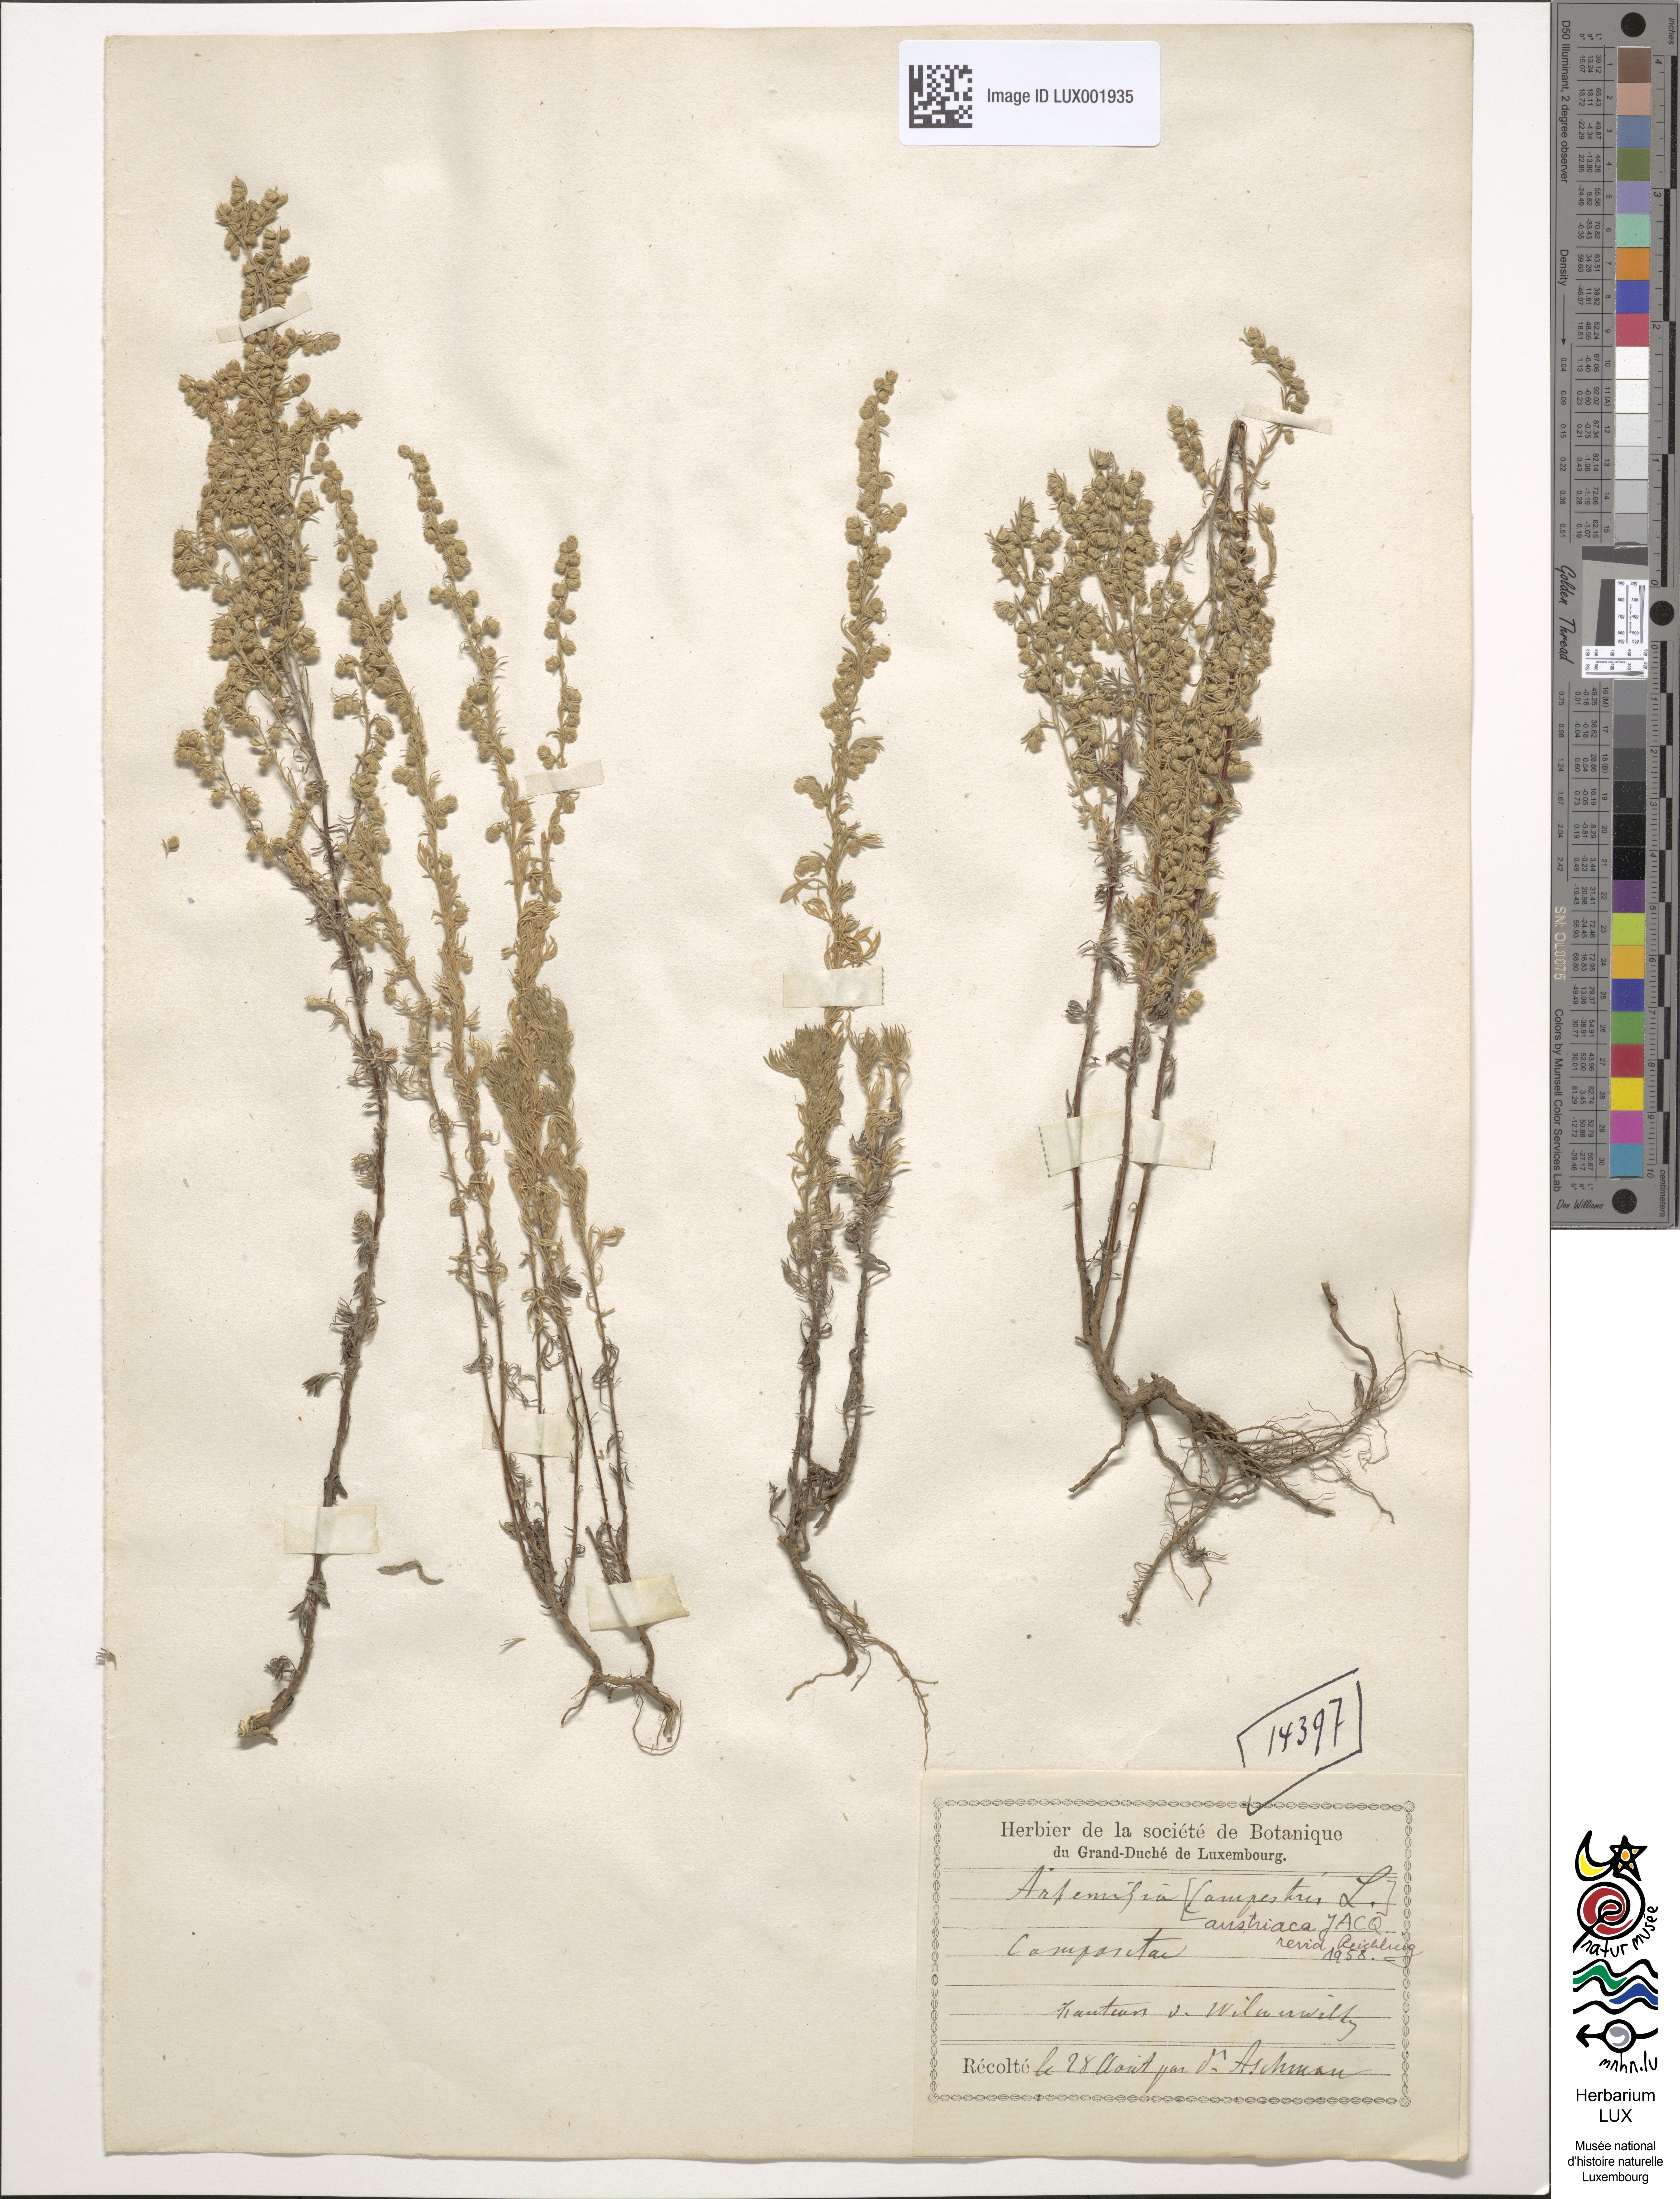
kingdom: Plantae
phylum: Tracheophyta
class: Magnoliopsida
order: Asterales
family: Asteraceae
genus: Artemisia
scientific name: Artemisia austriaca
